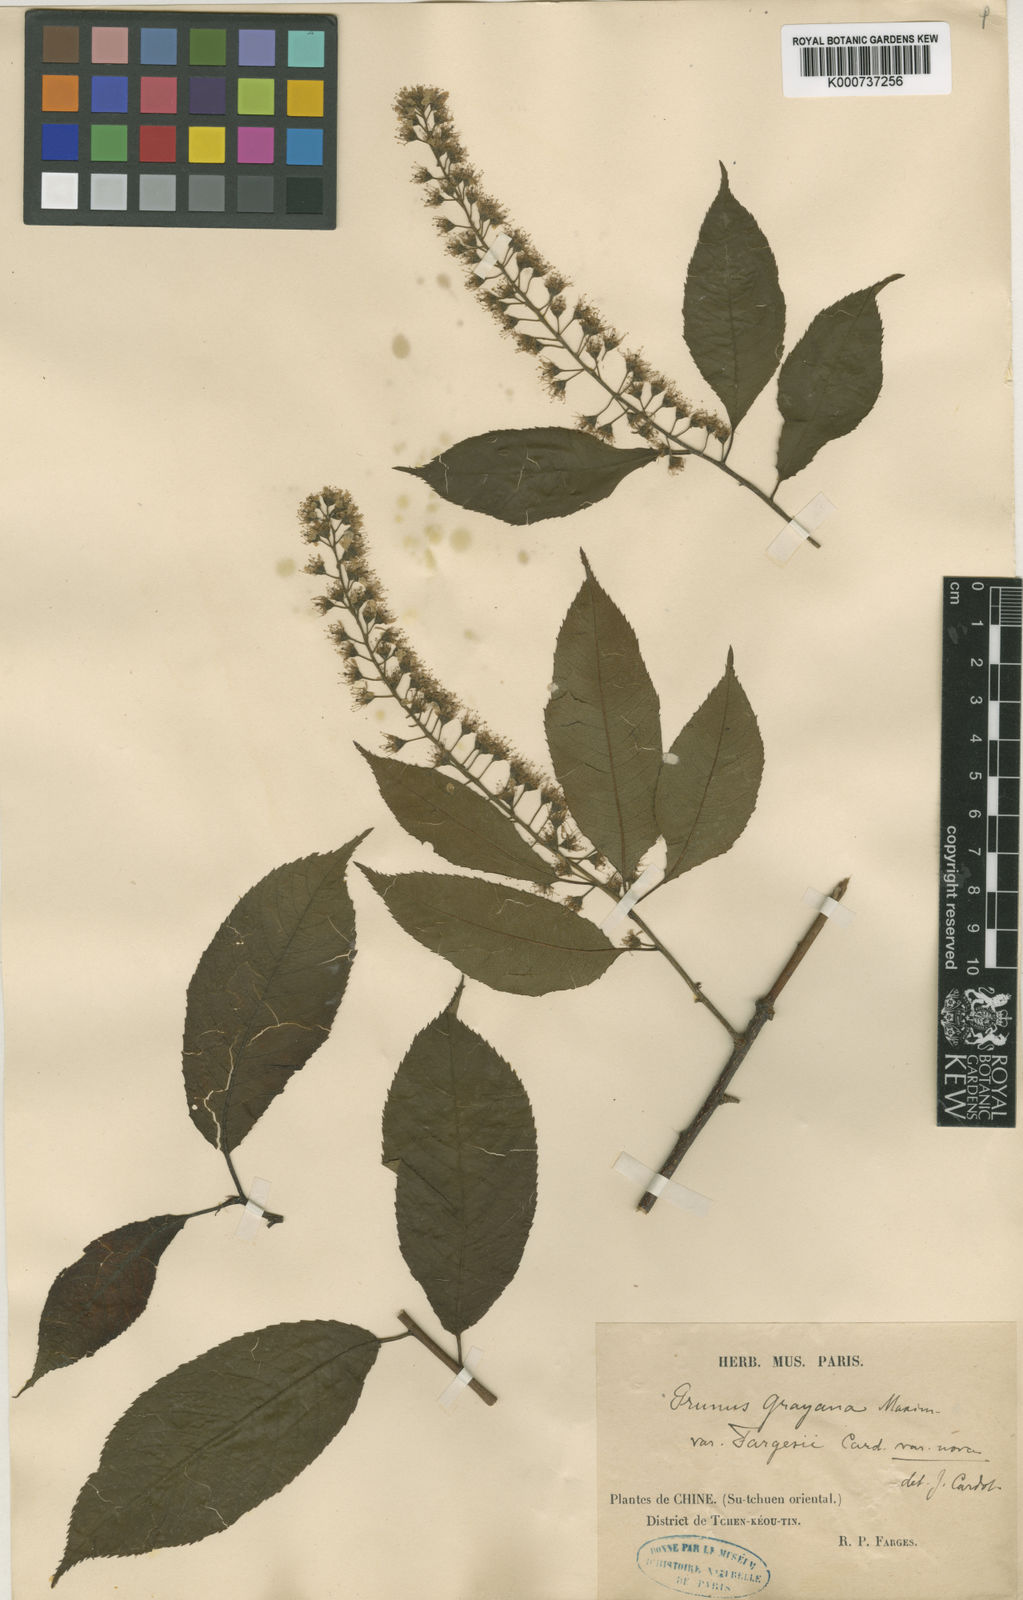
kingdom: Plantae
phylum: Tracheophyta
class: Magnoliopsida
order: Rosales
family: Rosaceae
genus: Prunus
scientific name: Prunus grayana
